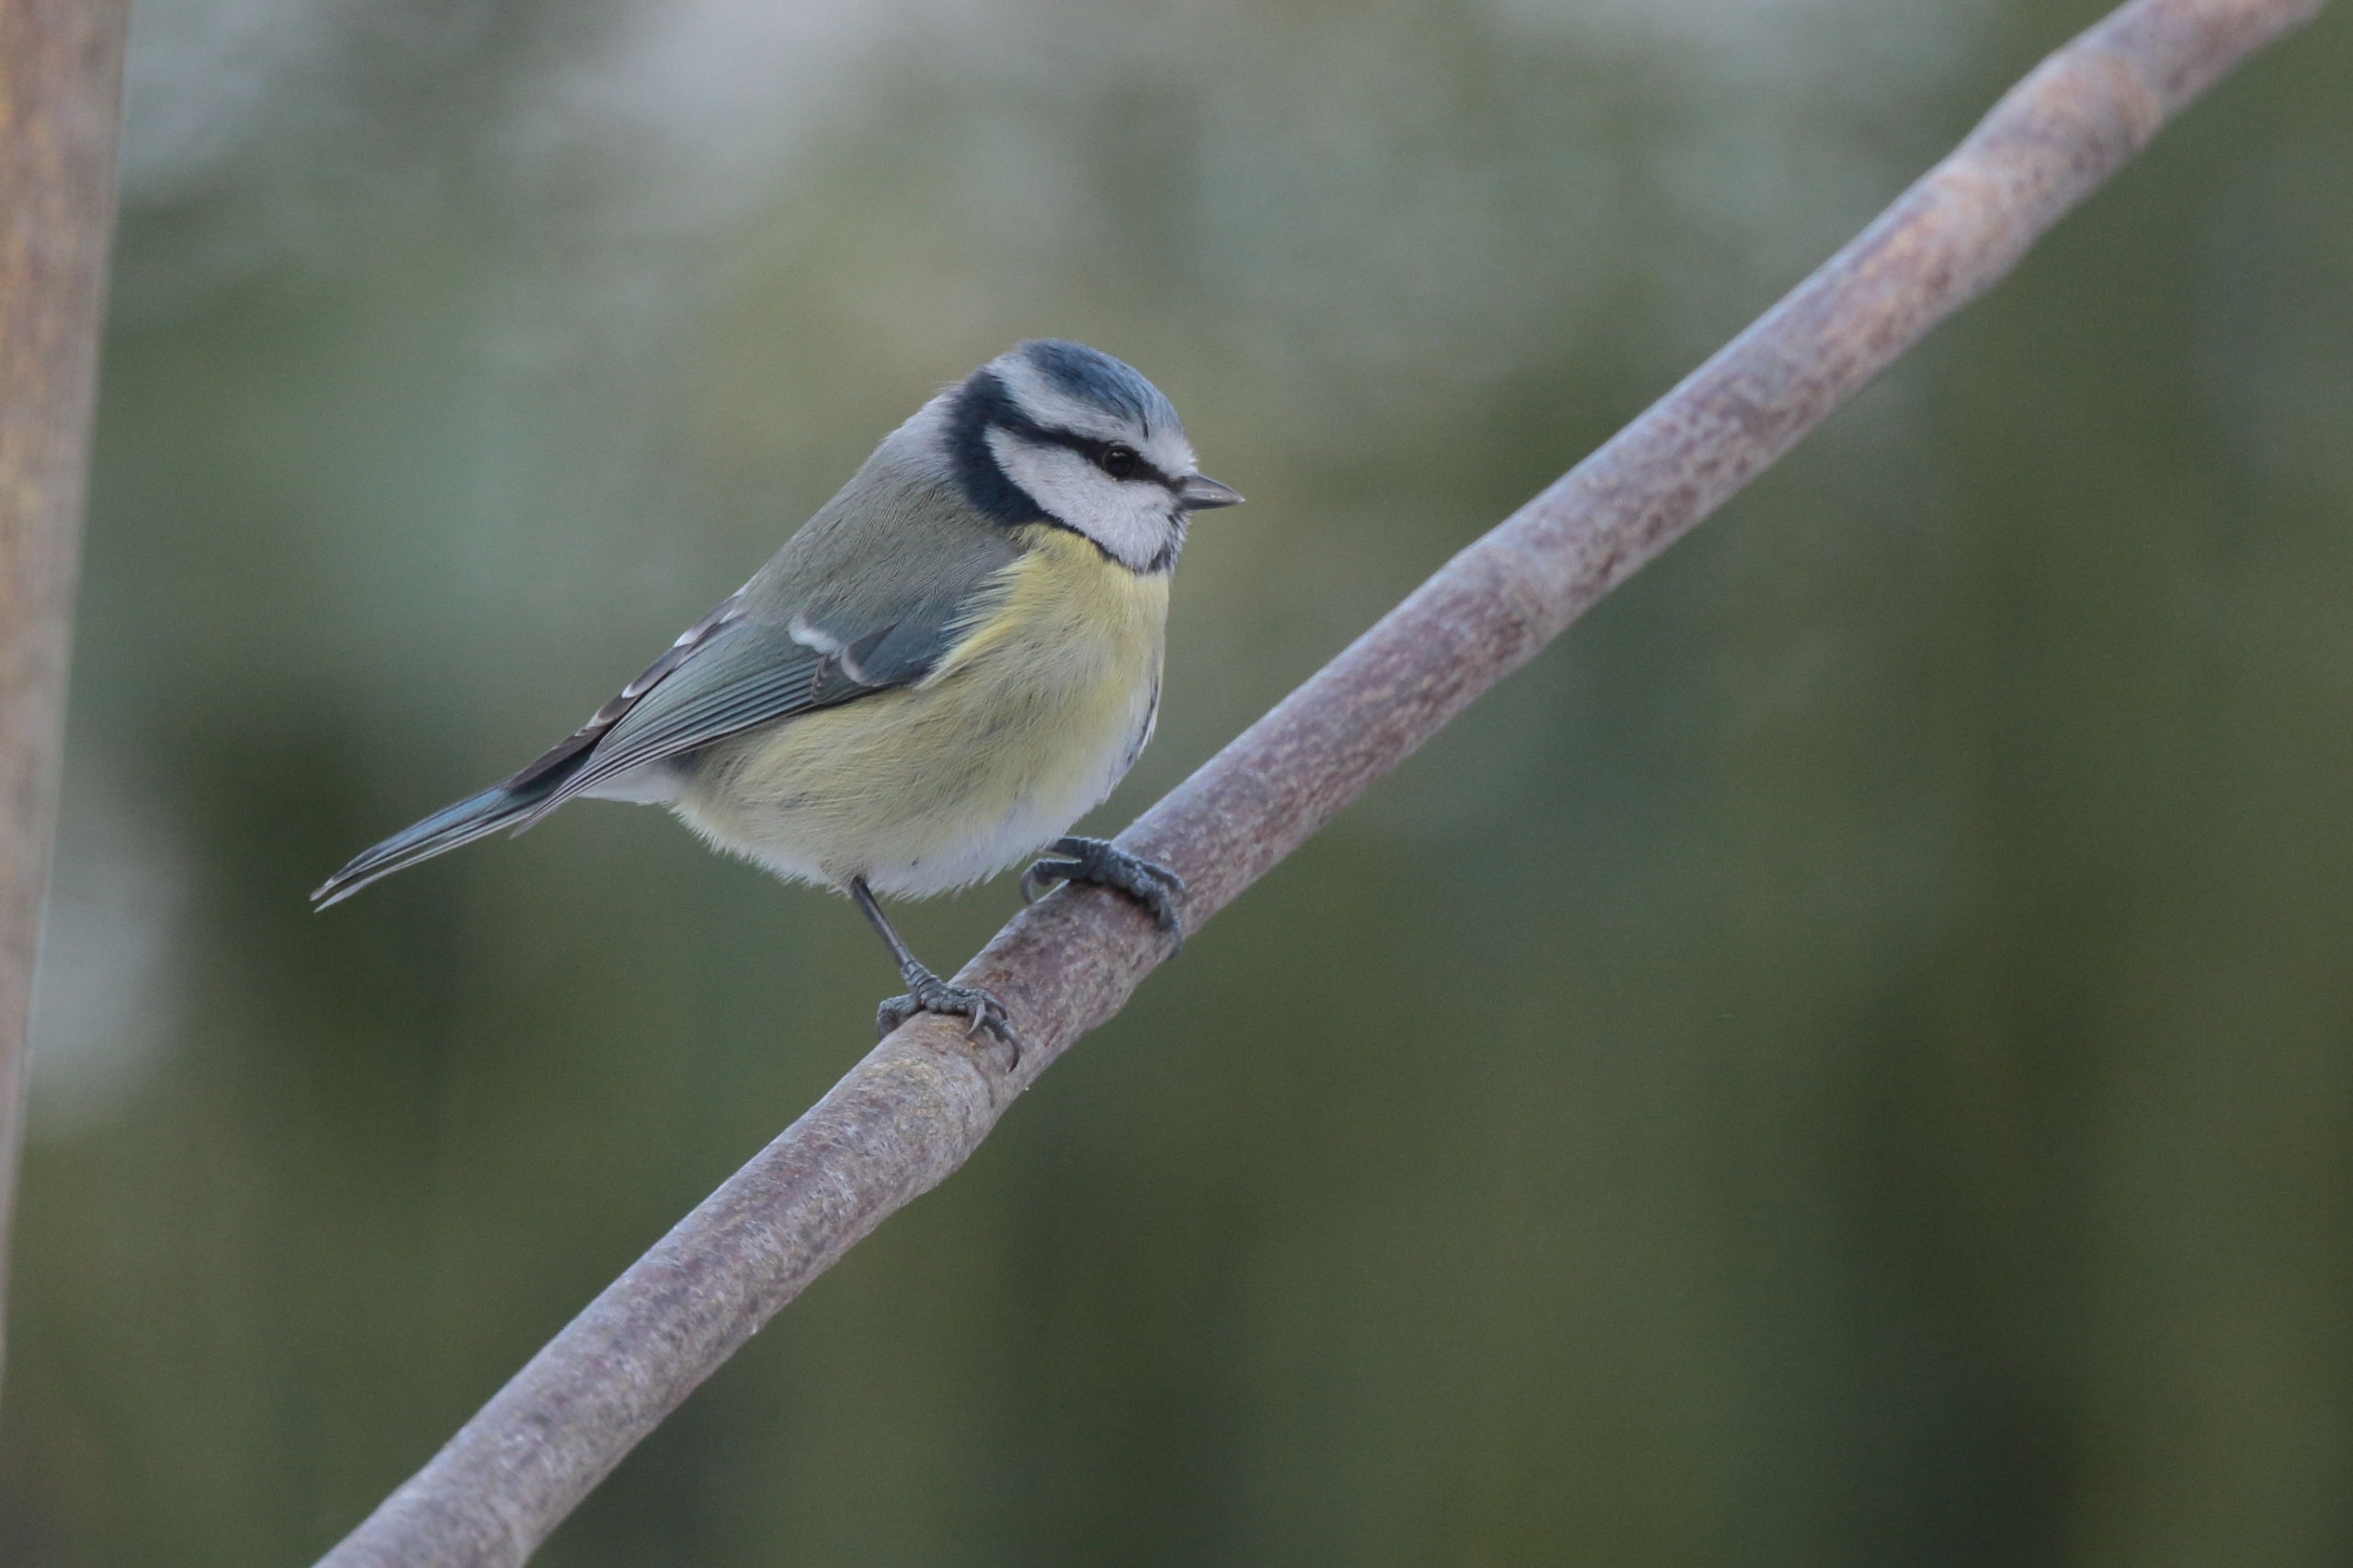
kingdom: Animalia
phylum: Chordata
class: Aves
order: Passeriformes
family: Paridae
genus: Cyanistes
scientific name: Cyanistes caeruleus
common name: Blåmejse
